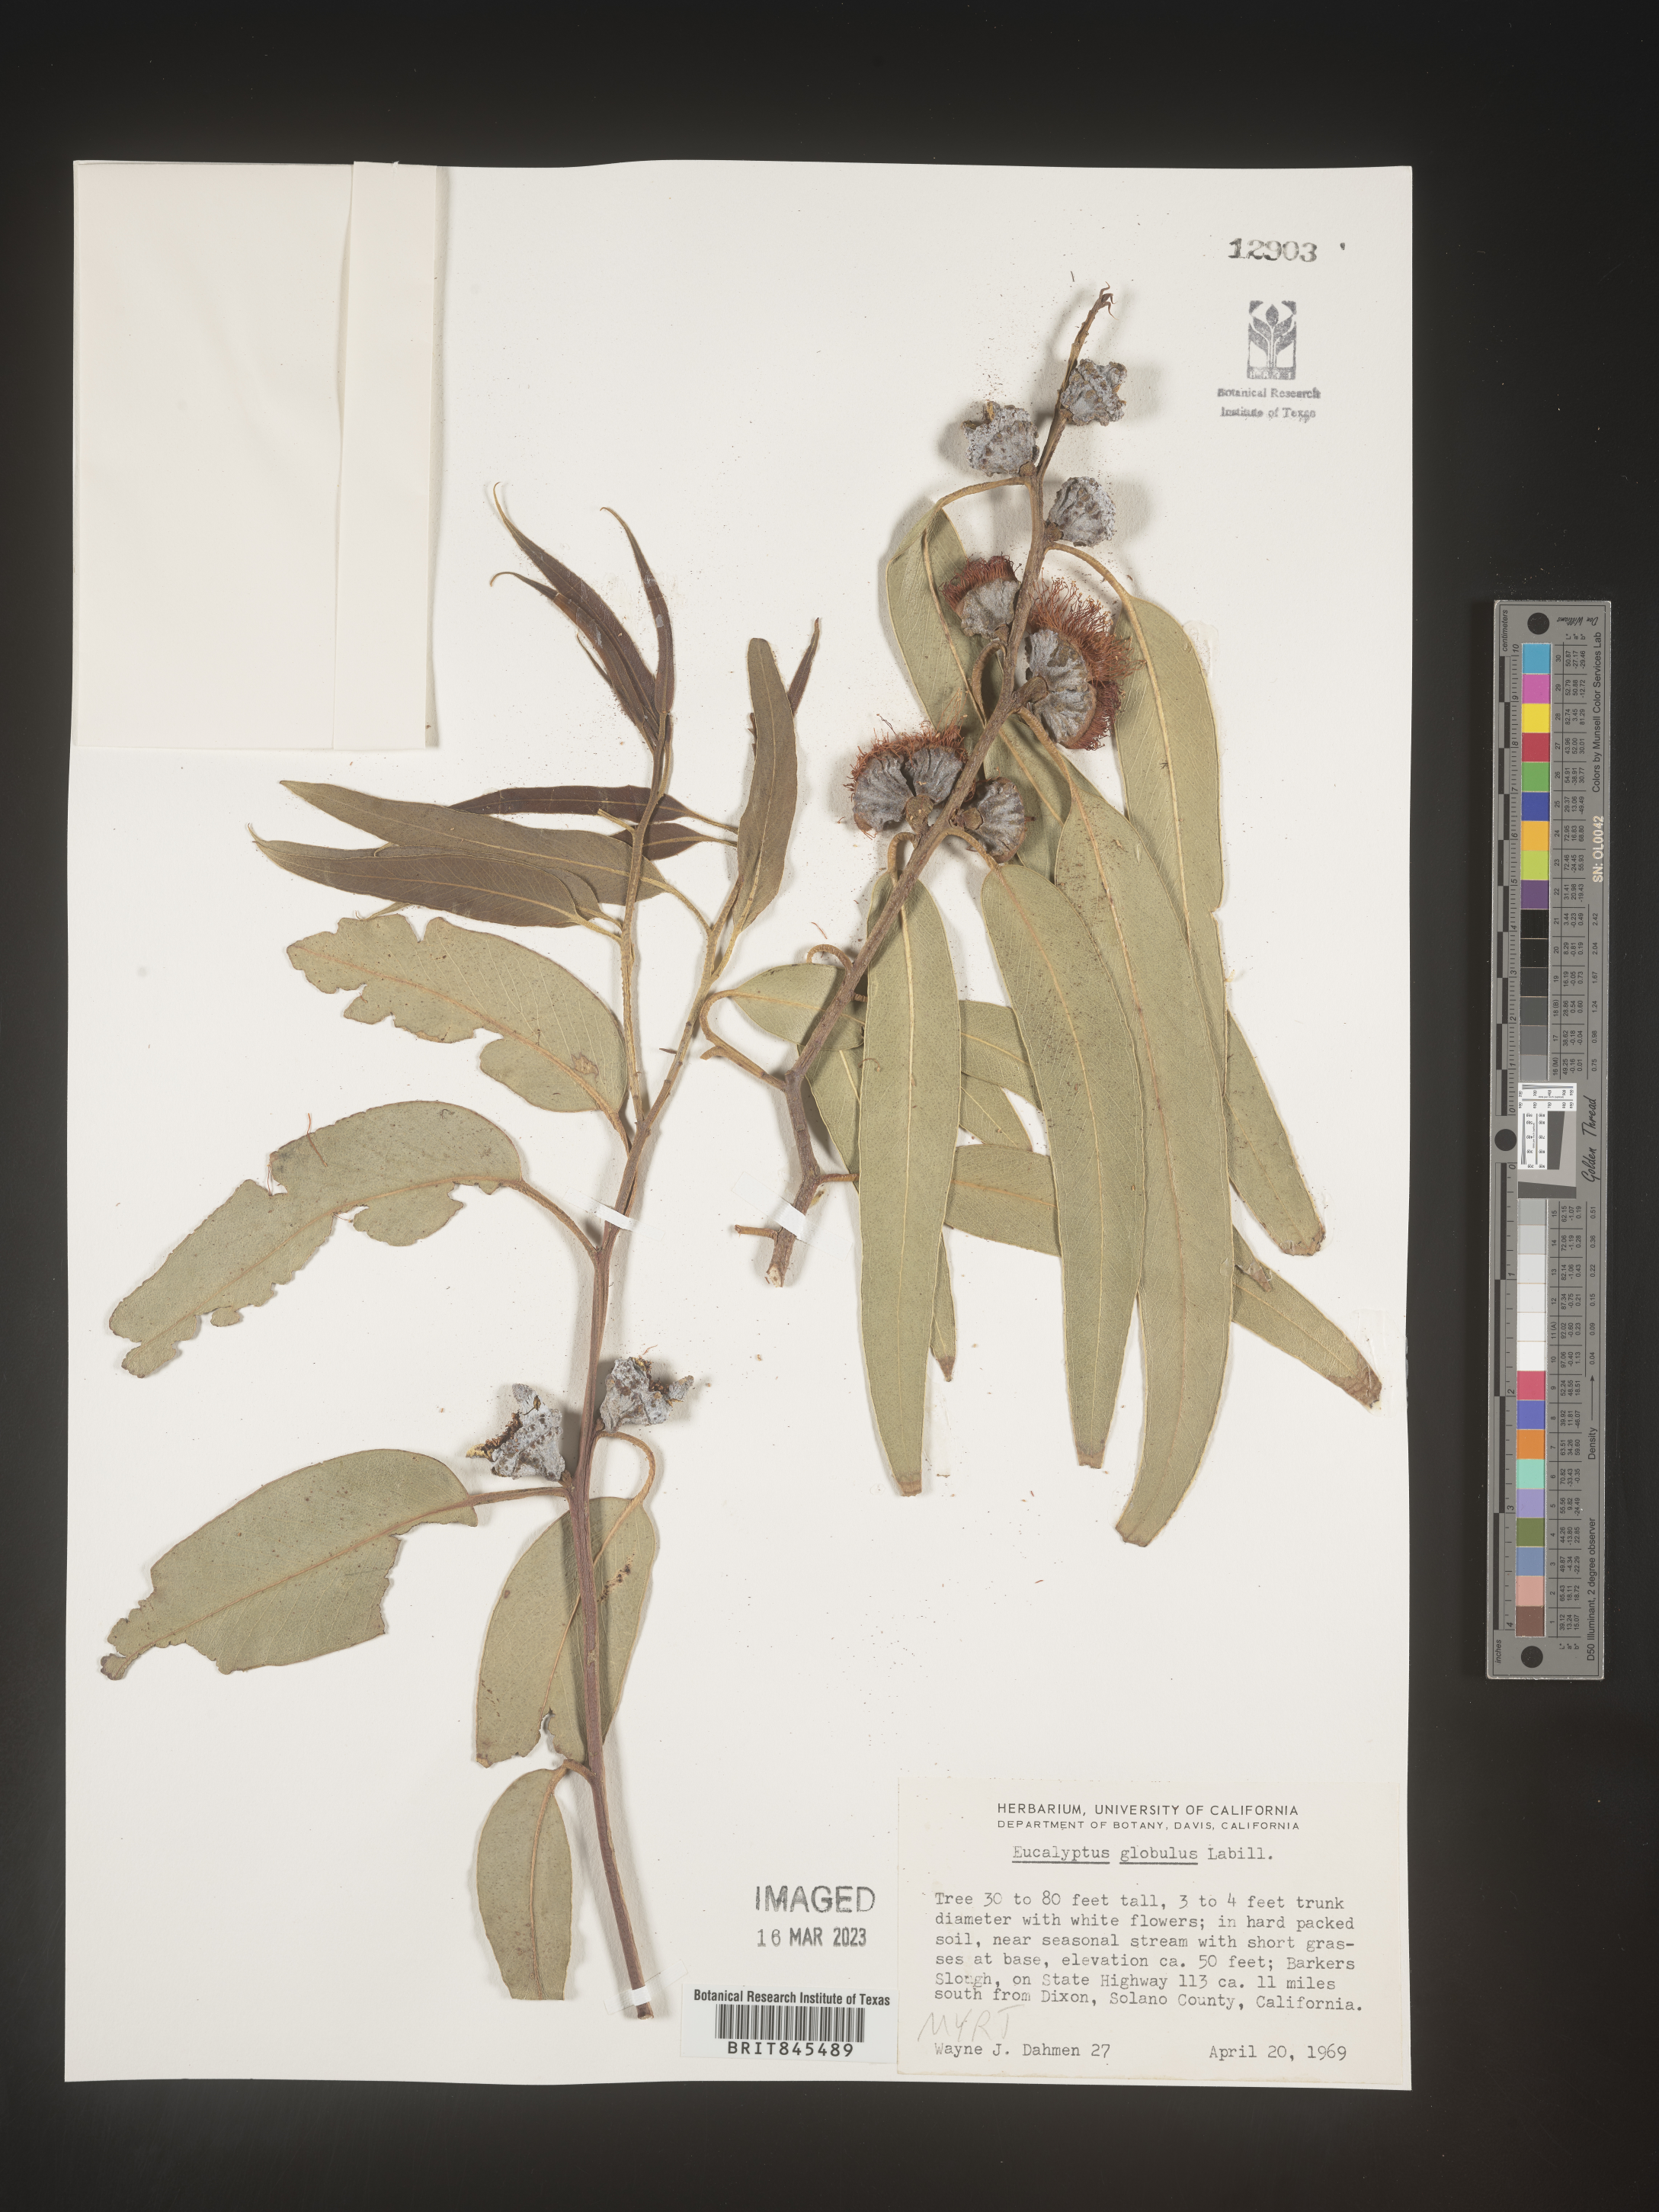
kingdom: Plantae
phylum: Tracheophyta
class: Magnoliopsida
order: Myrtales
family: Myrtaceae
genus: Eucalyptus
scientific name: Eucalyptus
